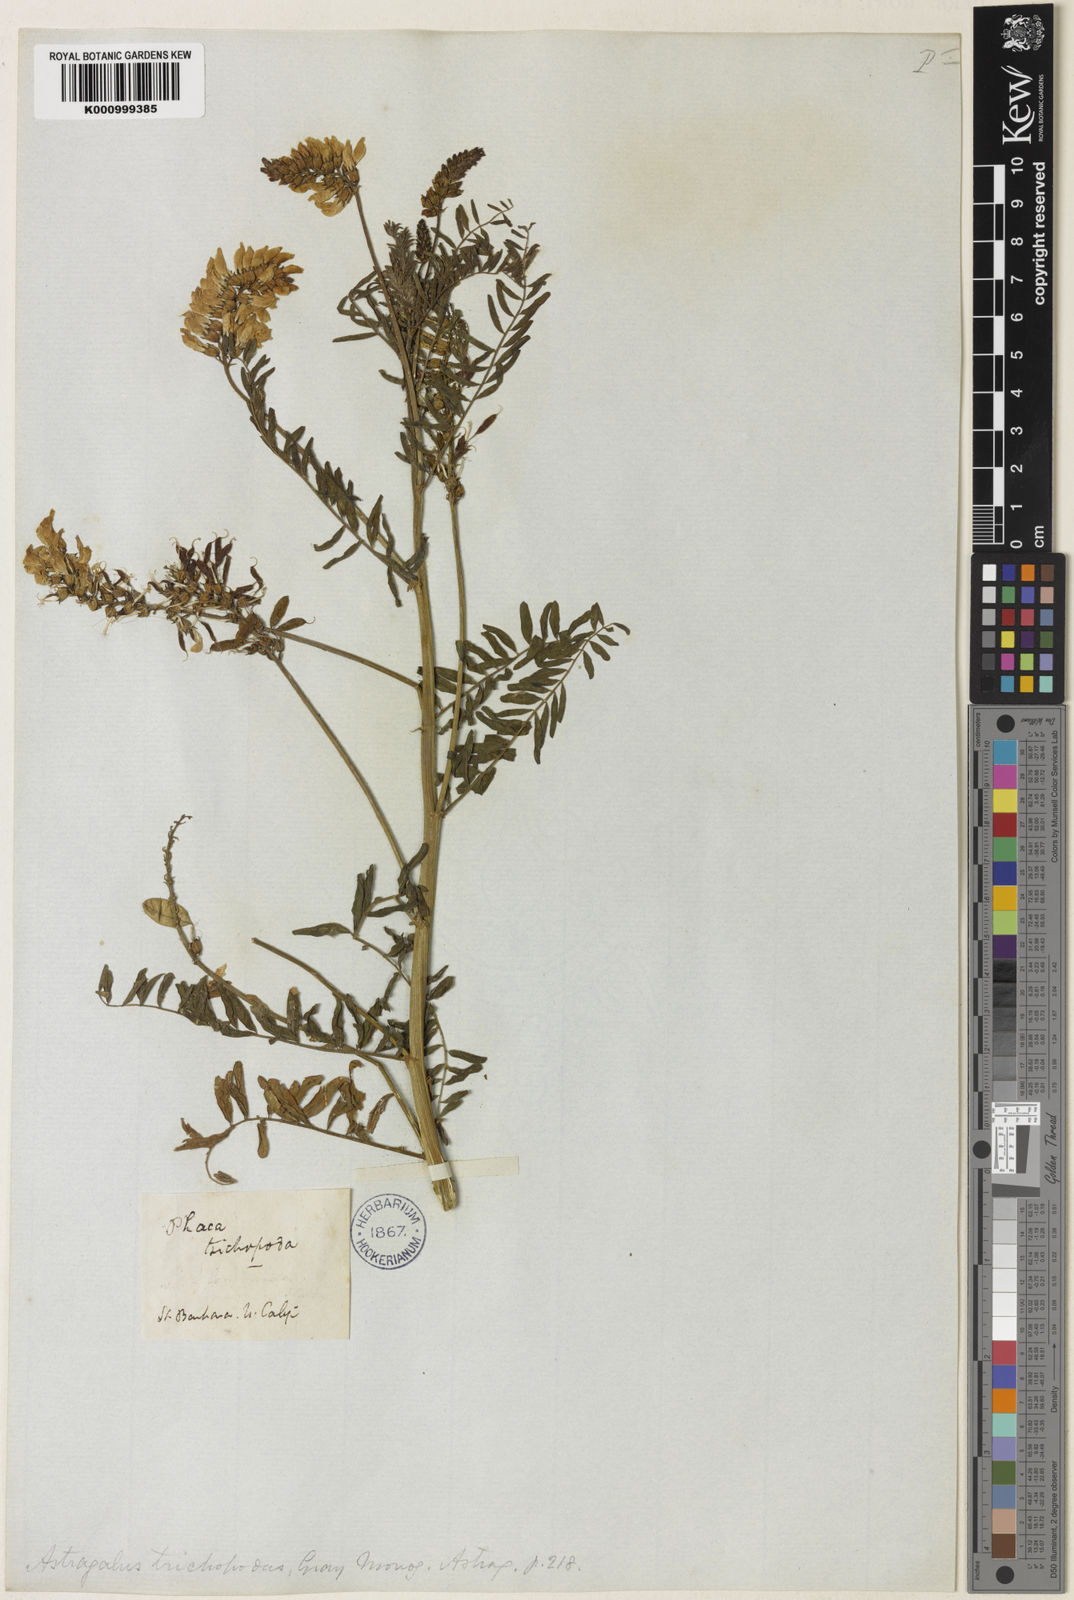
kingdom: Plantae
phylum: Tracheophyta
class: Magnoliopsida
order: Fabales
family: Fabaceae
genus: Astragalus
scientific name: Astragalus trichopodus
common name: Santa barbara milk-vetch
